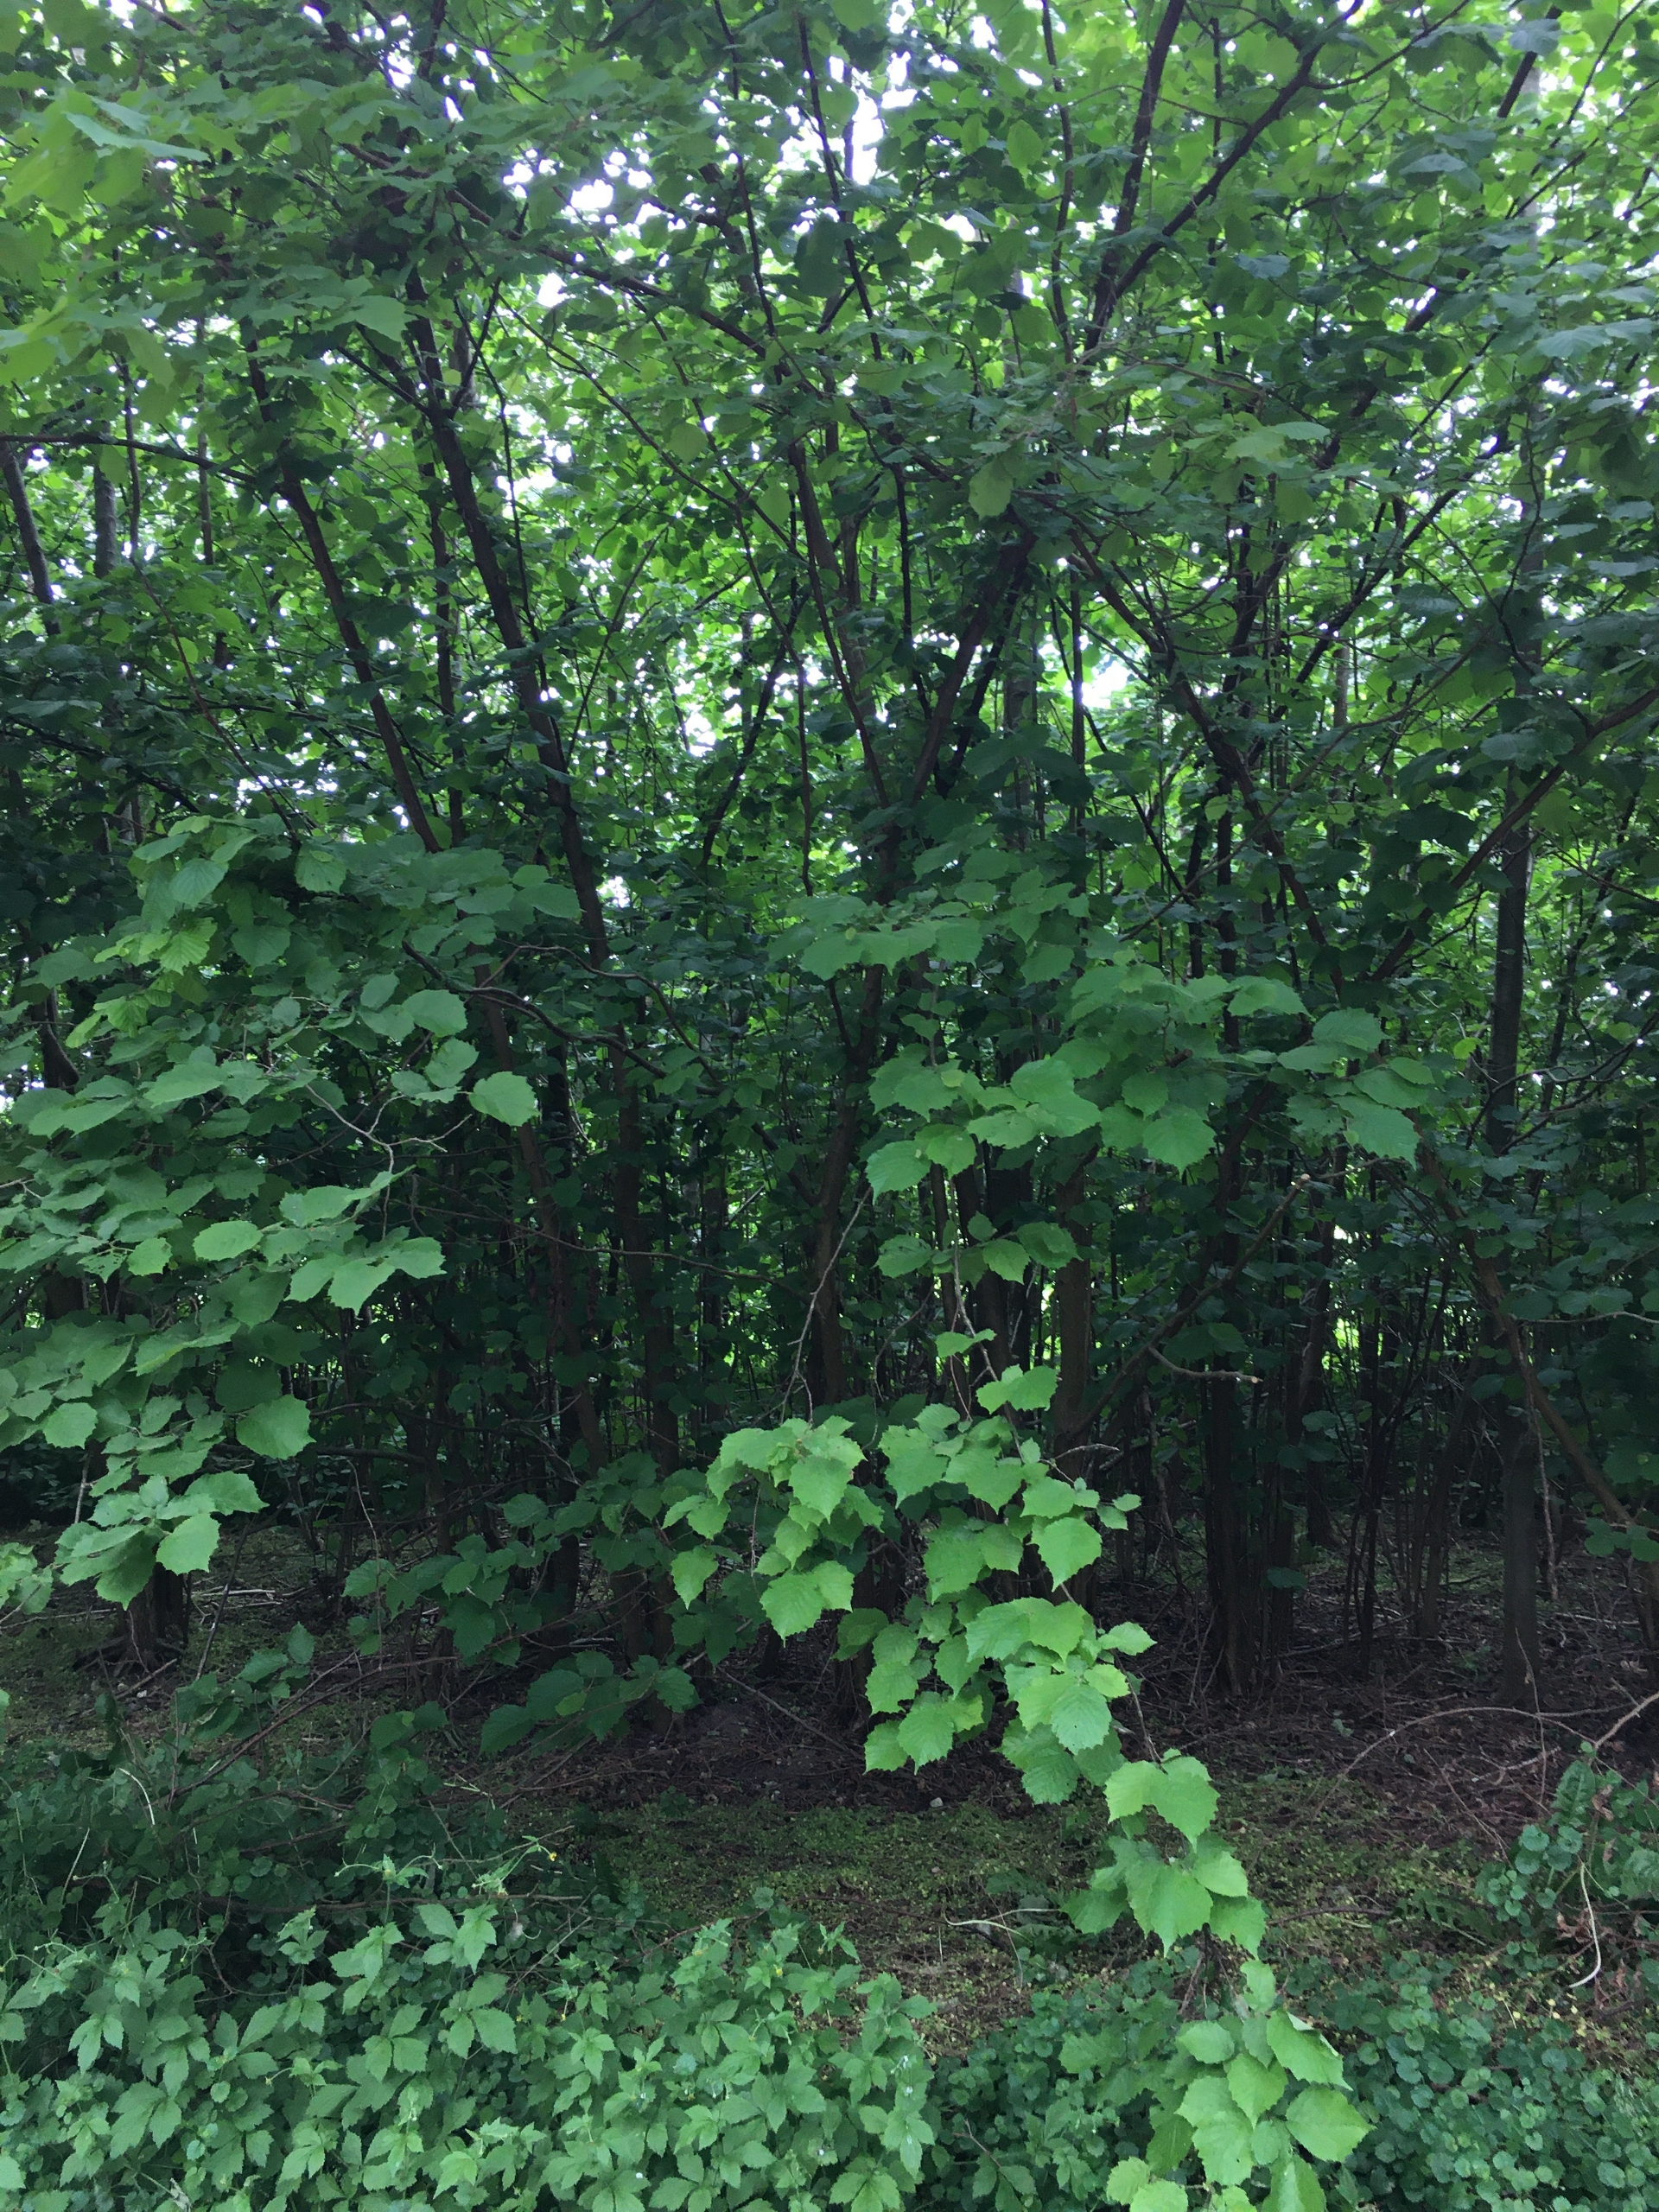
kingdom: Plantae
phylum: Tracheophyta
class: Magnoliopsida
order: Fagales
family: Betulaceae
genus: Corylus
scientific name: Corylus avellana
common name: Hassel
